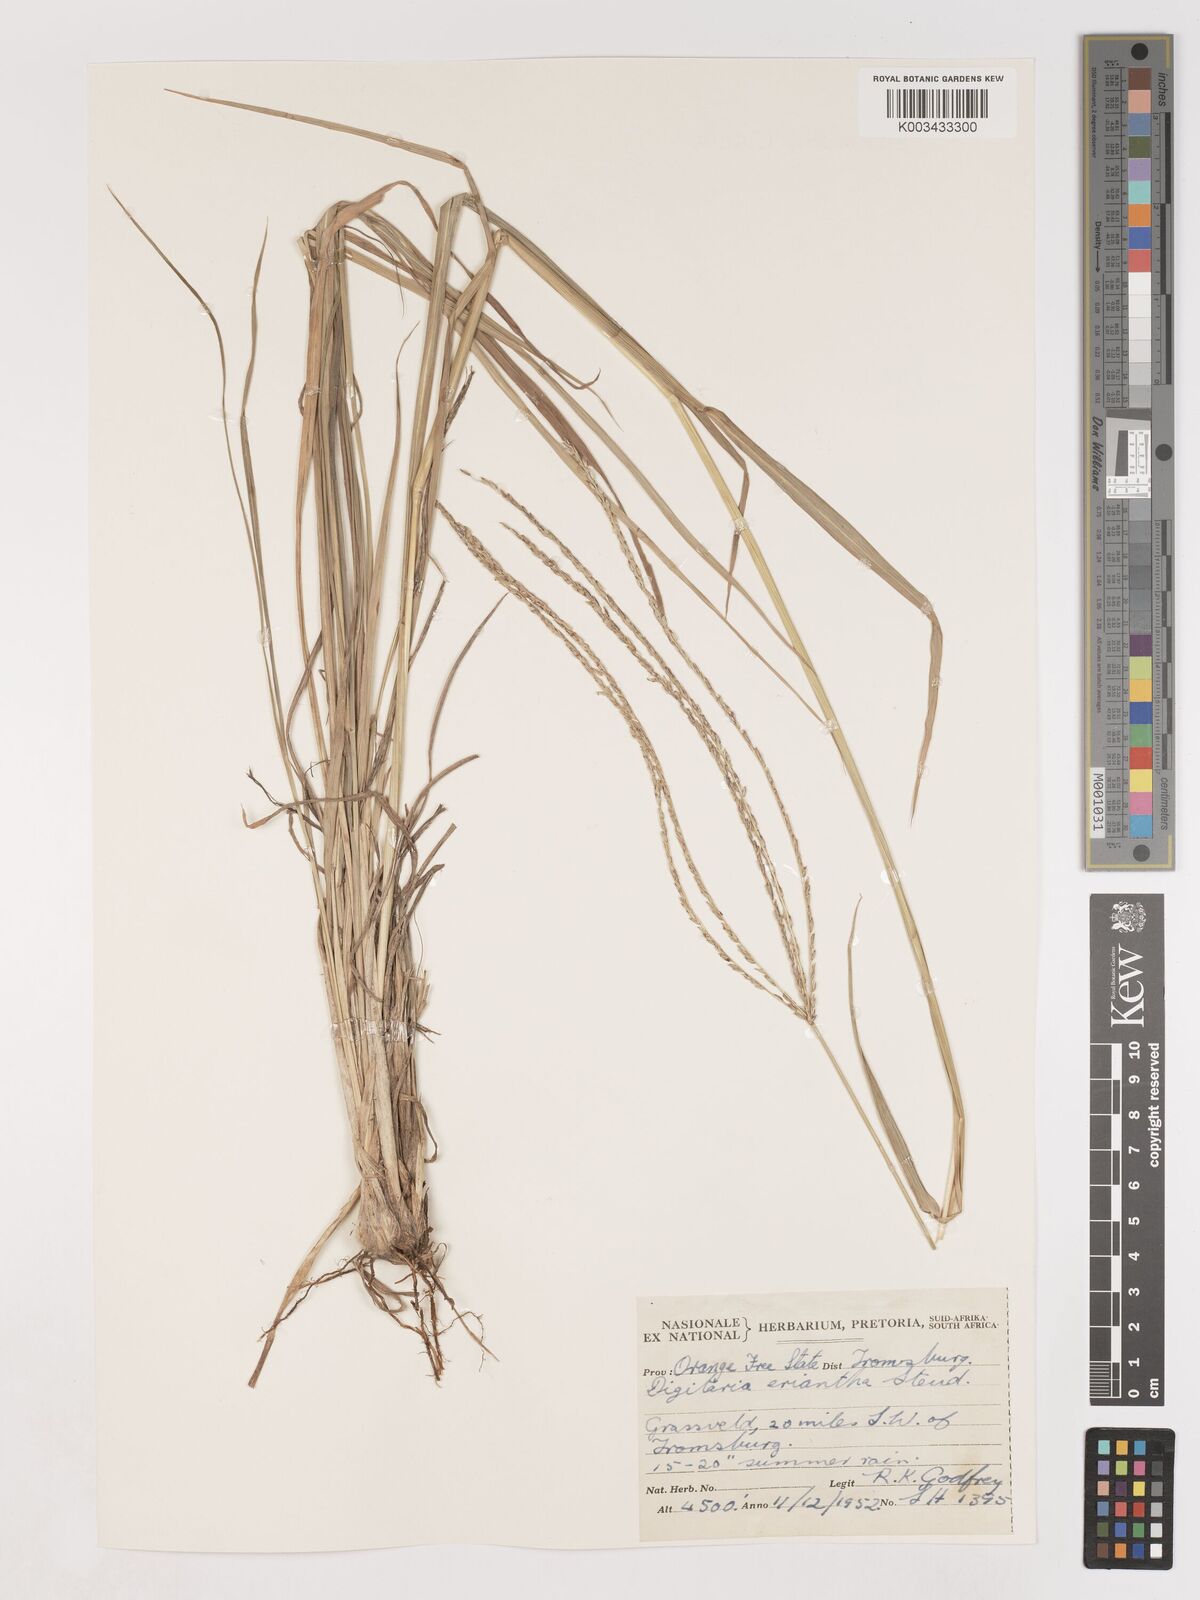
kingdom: Plantae
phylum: Tracheophyta
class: Liliopsida
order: Poales
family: Poaceae
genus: Digitaria
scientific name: Digitaria eriantha
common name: Digitgrass
